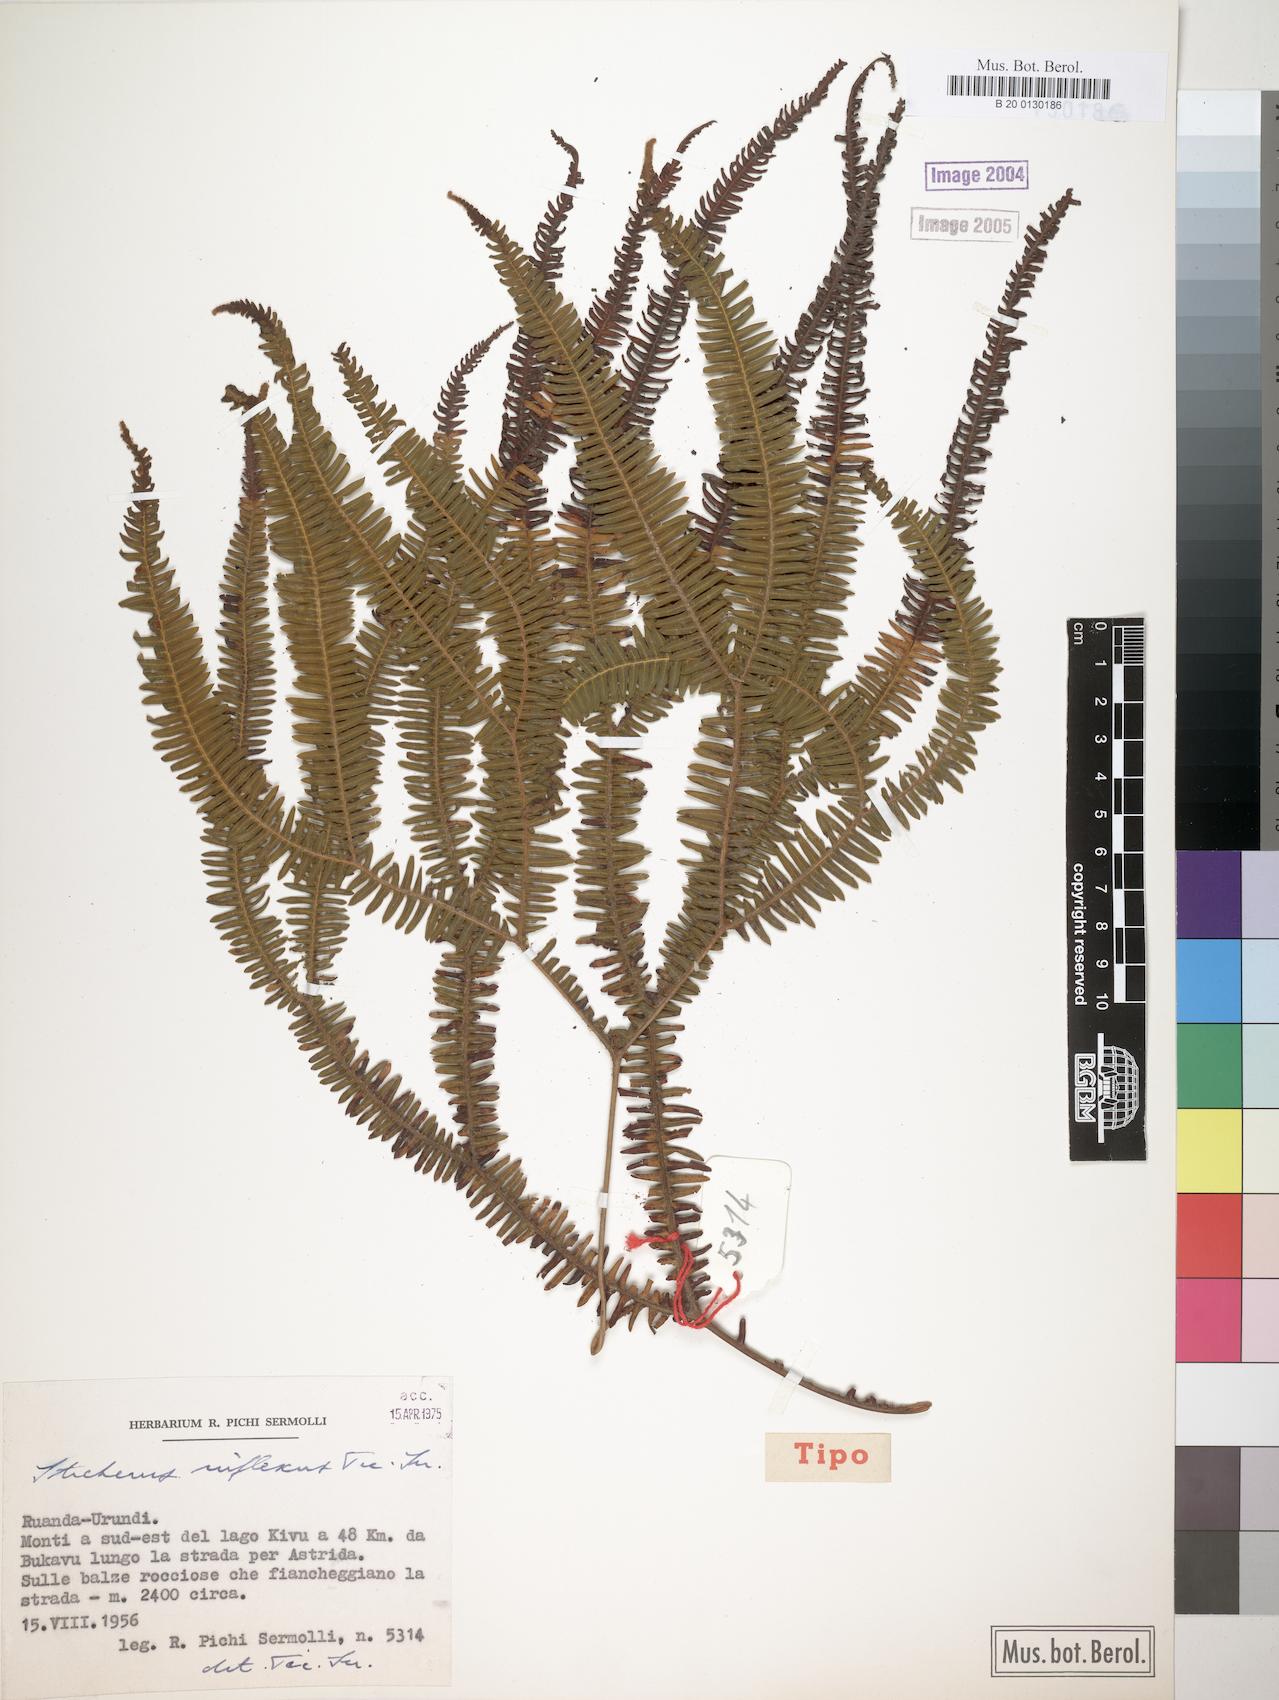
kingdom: Plantae
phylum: Tracheophyta
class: Polypodiopsida
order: Gleicheniales
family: Gleicheniaceae
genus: Sticherus
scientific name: Sticherus inflexus
